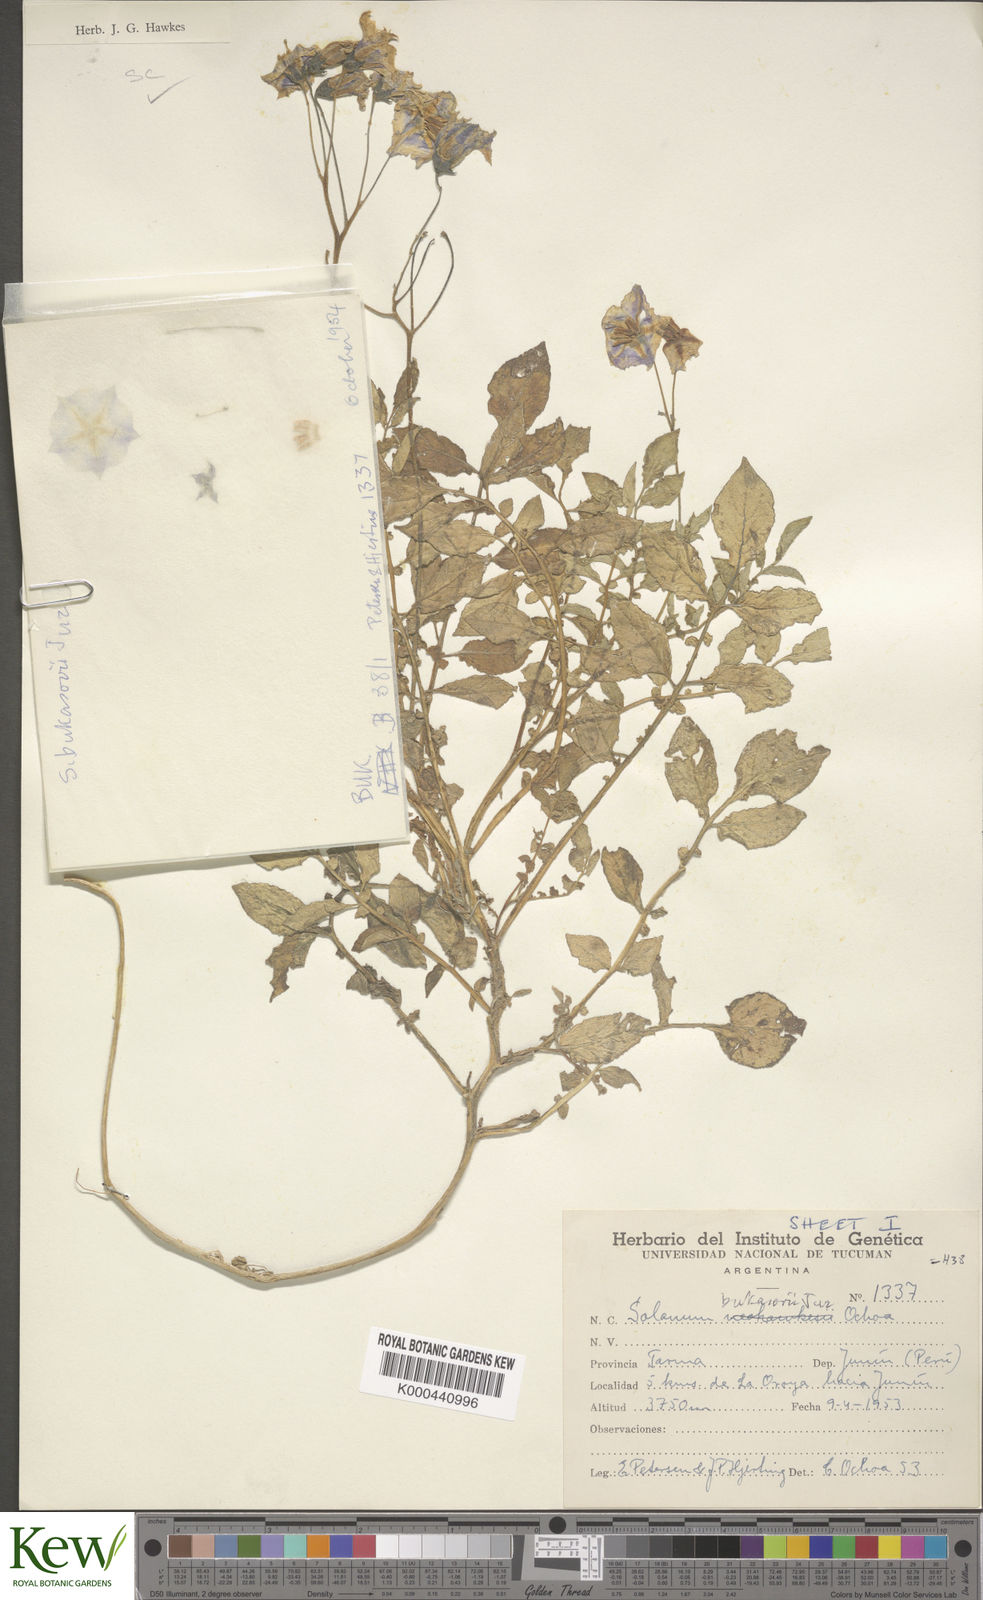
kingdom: Plantae
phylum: Tracheophyta
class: Magnoliopsida
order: Solanales
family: Solanaceae
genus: Solanum
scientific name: Solanum candolleanum
